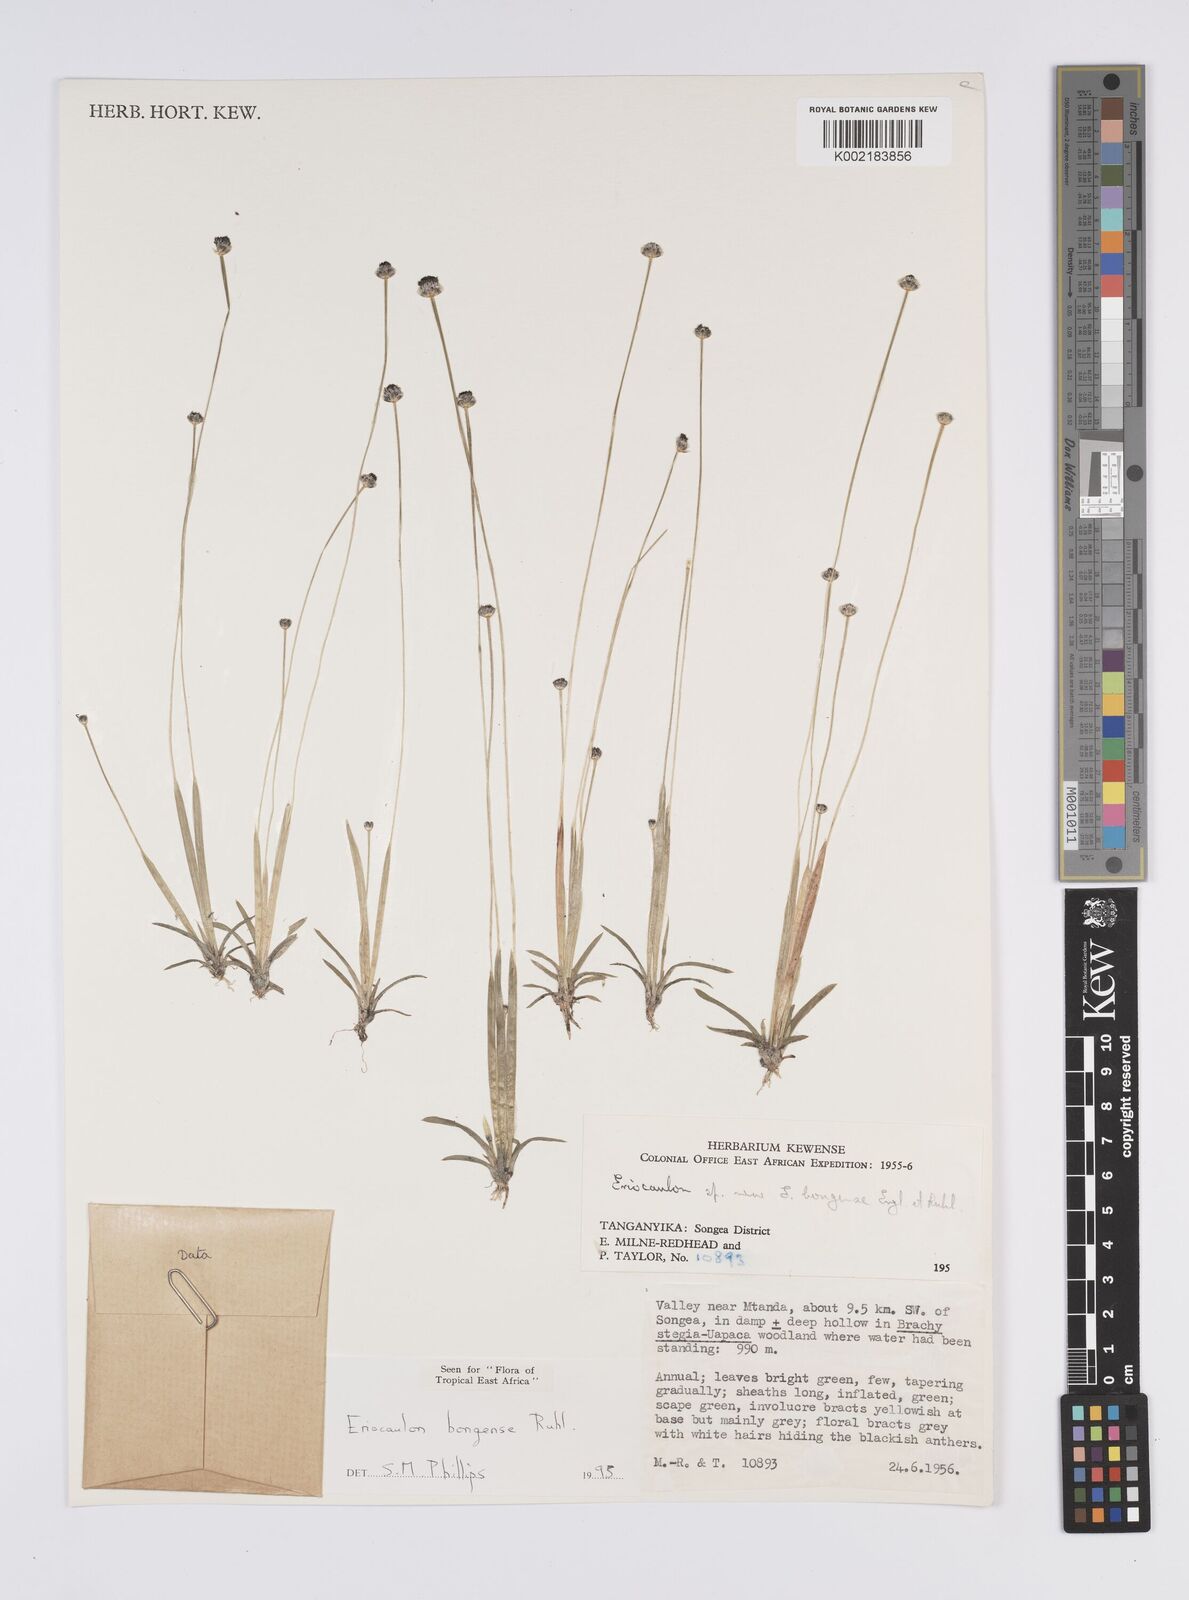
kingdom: Plantae
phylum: Tracheophyta
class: Liliopsida
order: Poales
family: Eriocaulaceae
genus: Eriocaulon
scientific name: Eriocaulon bongense
